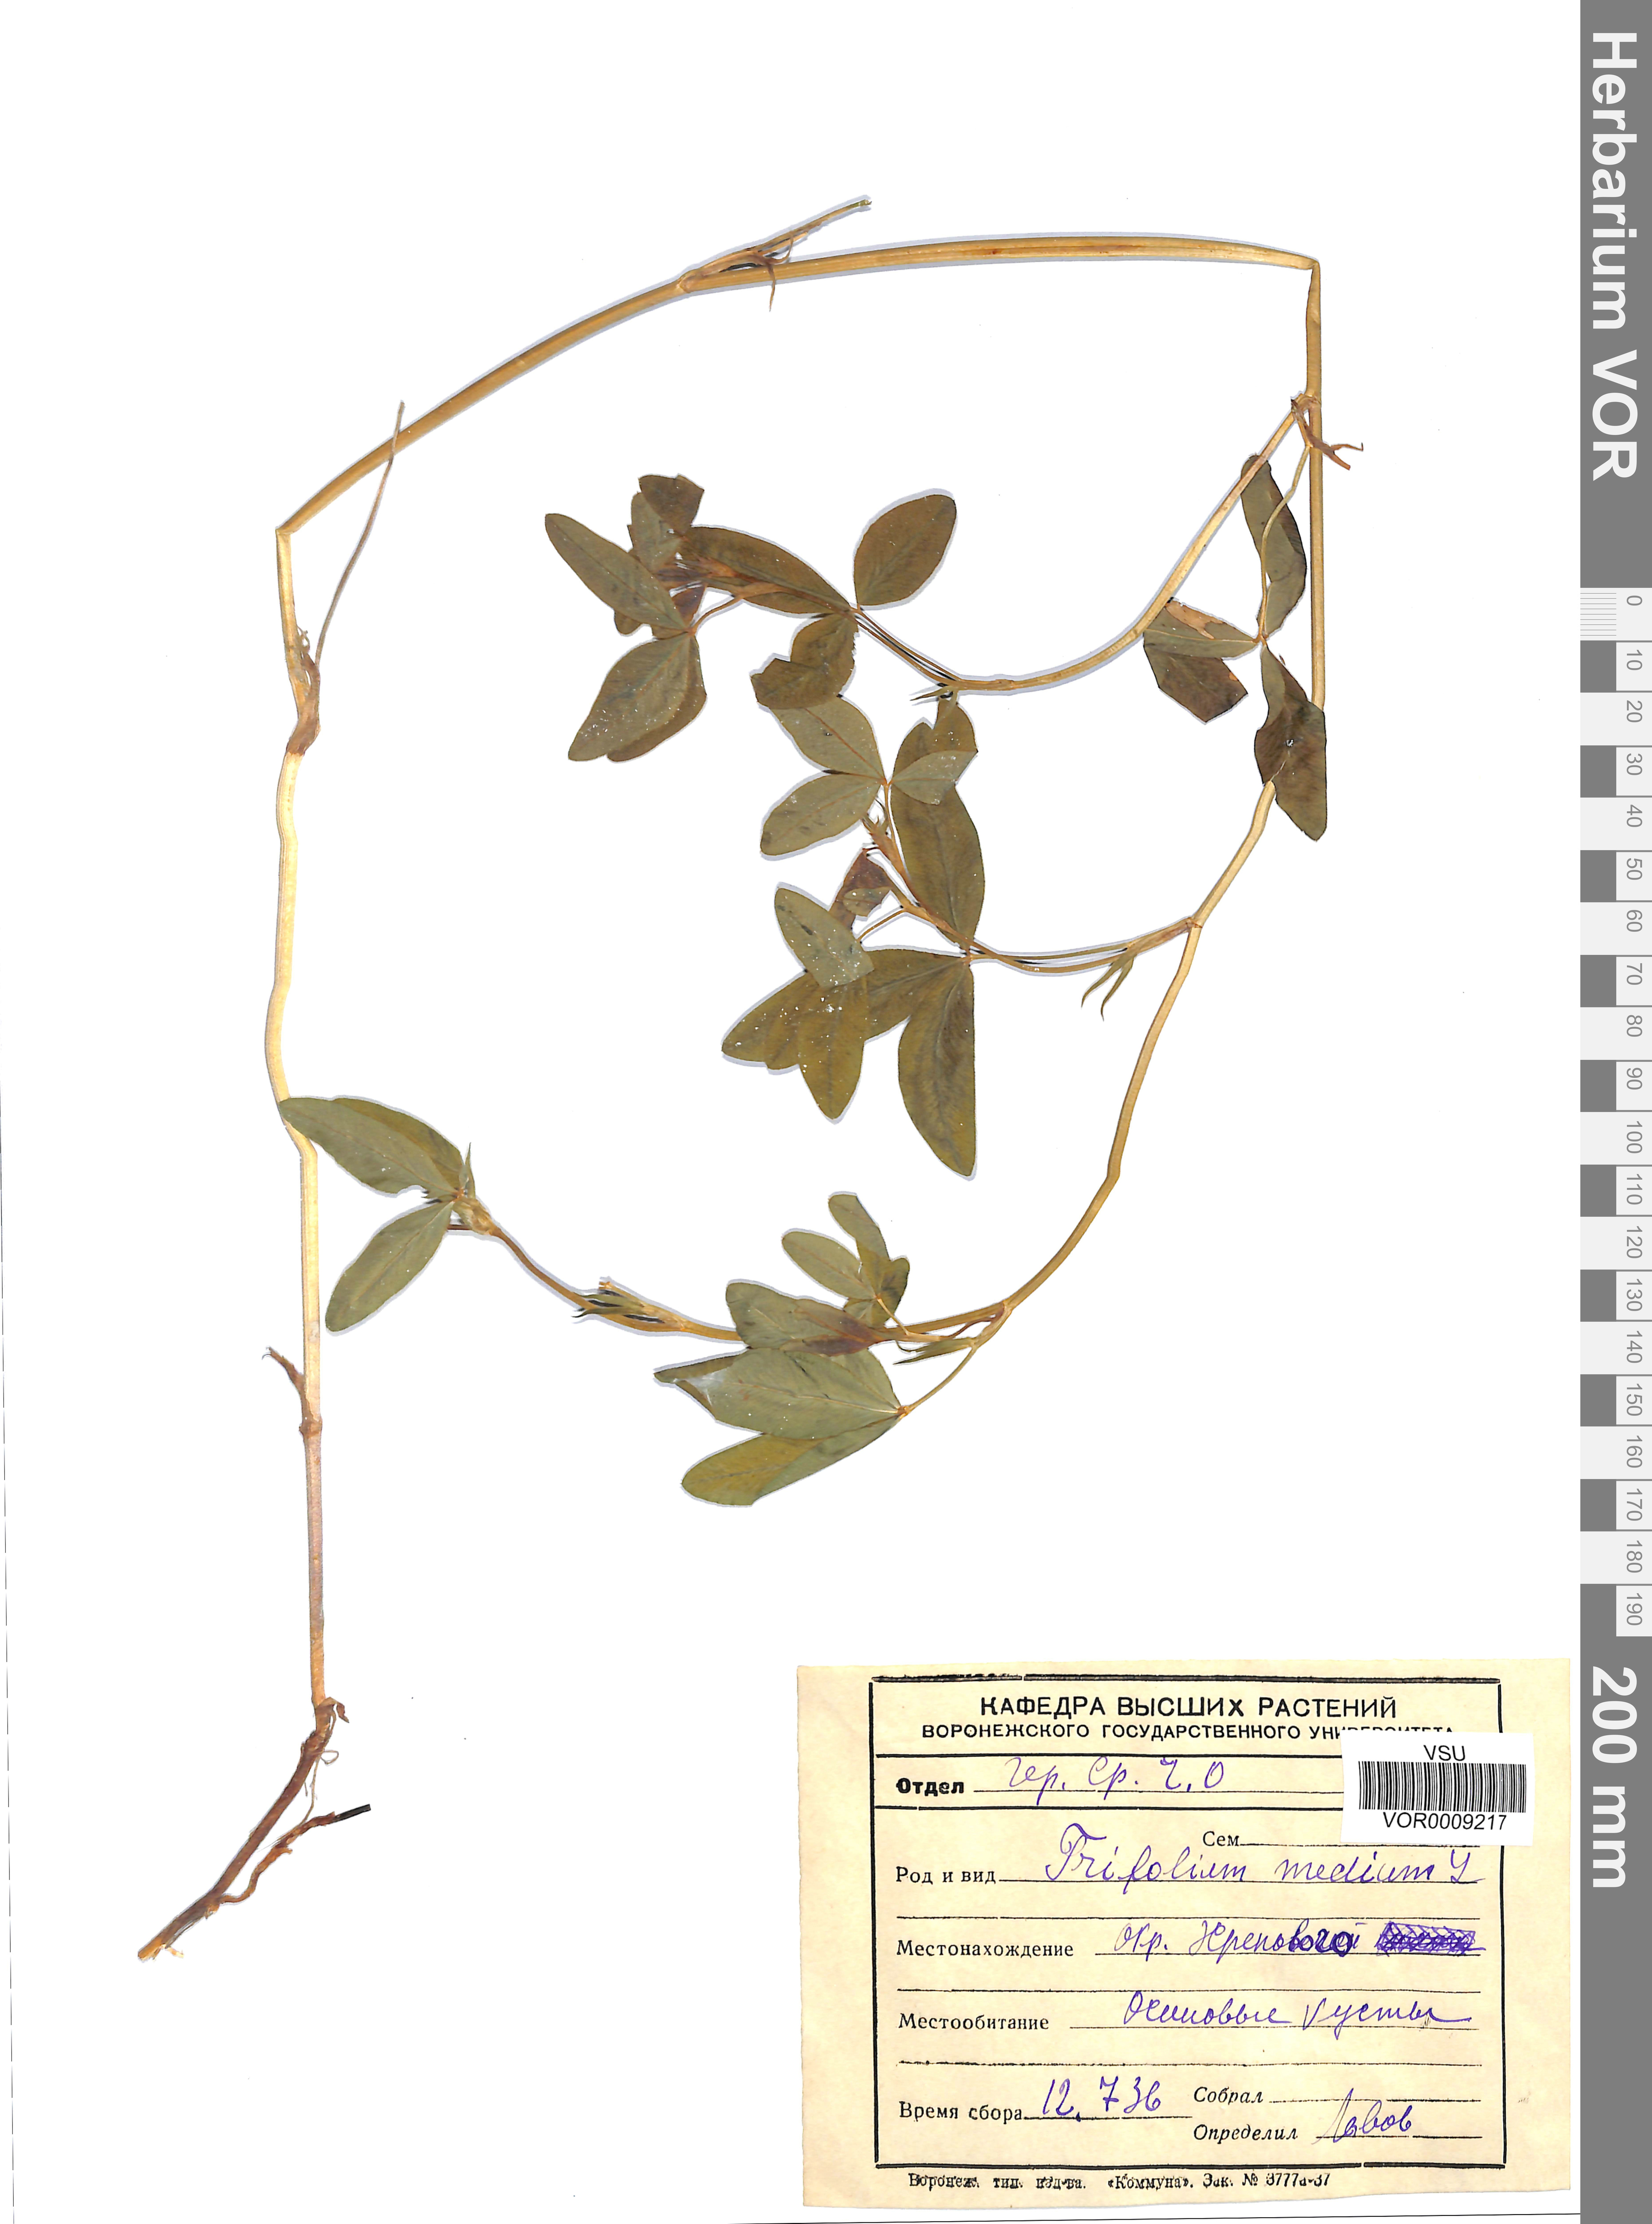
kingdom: Plantae
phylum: Tracheophyta
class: Magnoliopsida
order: Fabales
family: Fabaceae
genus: Trifolium
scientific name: Trifolium medium
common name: Zigzag clover
